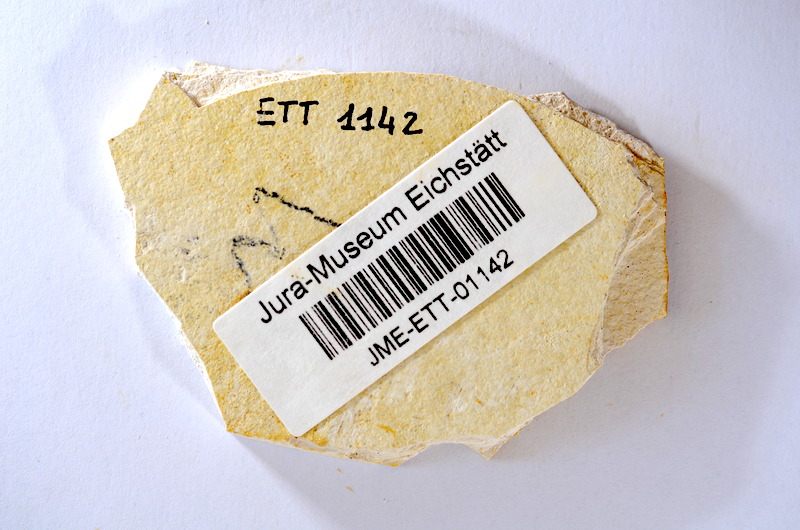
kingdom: Animalia
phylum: Chordata
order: Salmoniformes
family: Orthogonikleithridae
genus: Orthogonikleithrus
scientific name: Orthogonikleithrus hoelli
